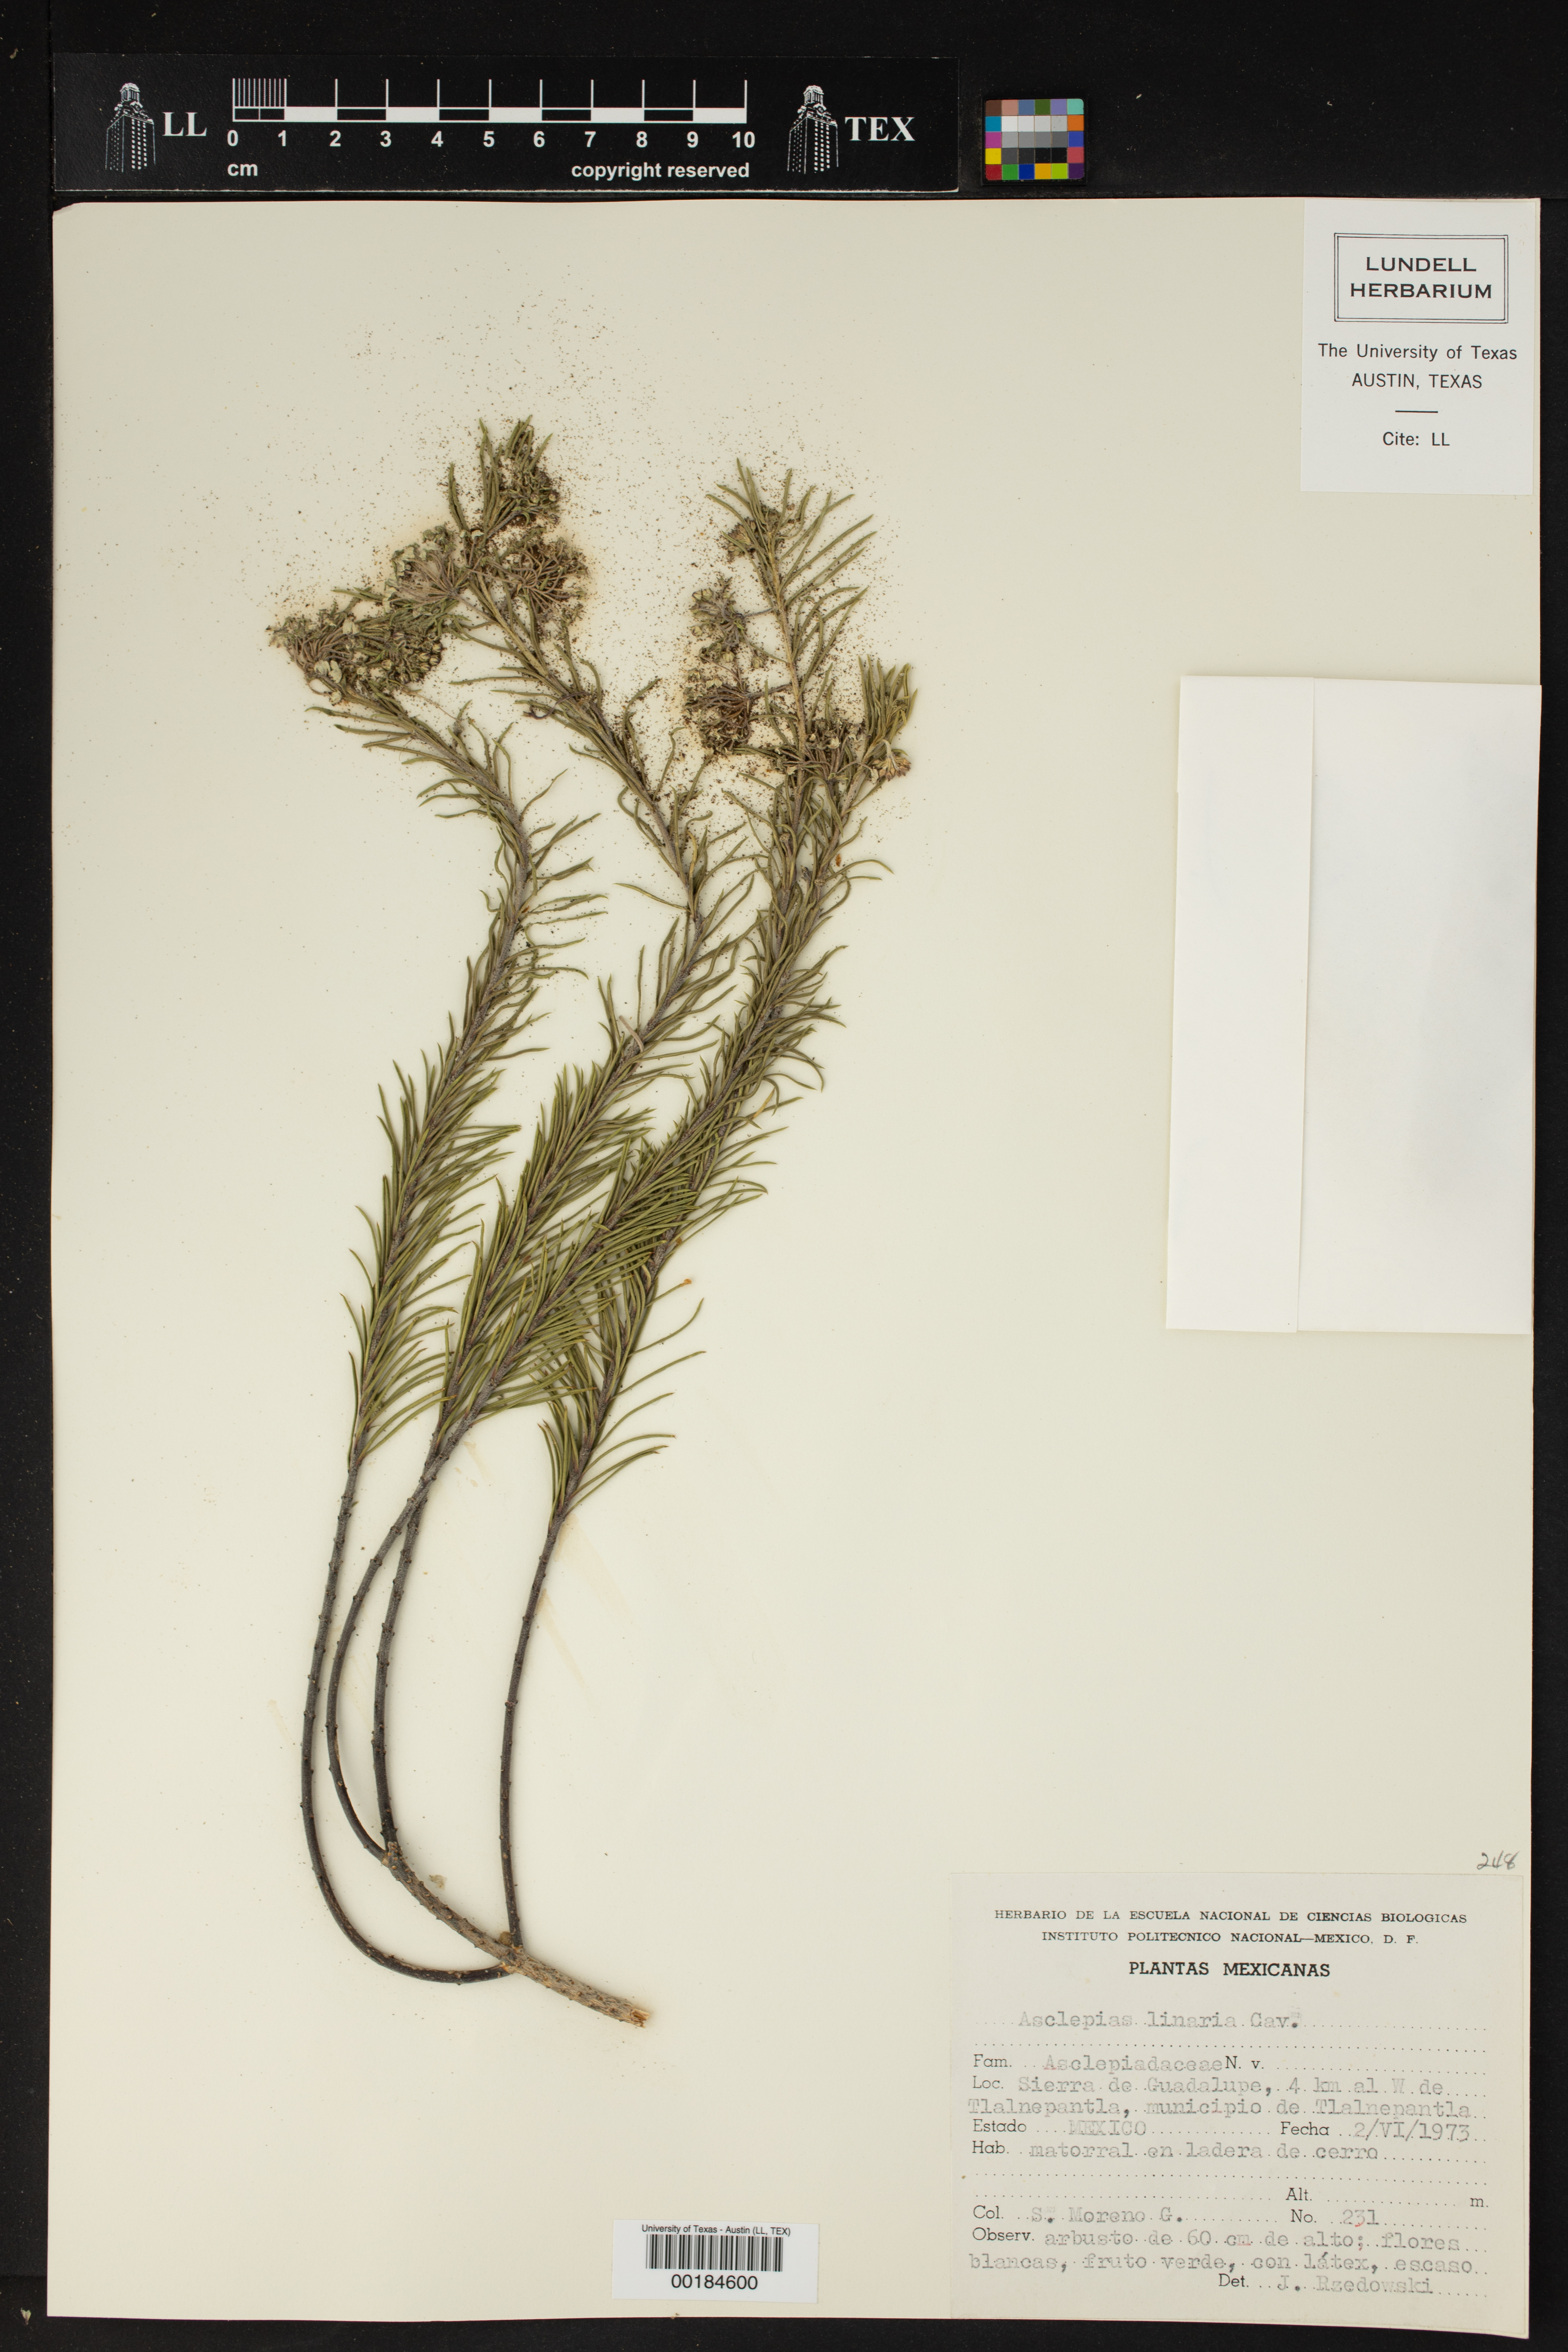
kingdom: Plantae
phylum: Tracheophyta
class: Magnoliopsida
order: Gentianales
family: Apocynaceae
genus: Asclepias
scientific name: Asclepias linaria
